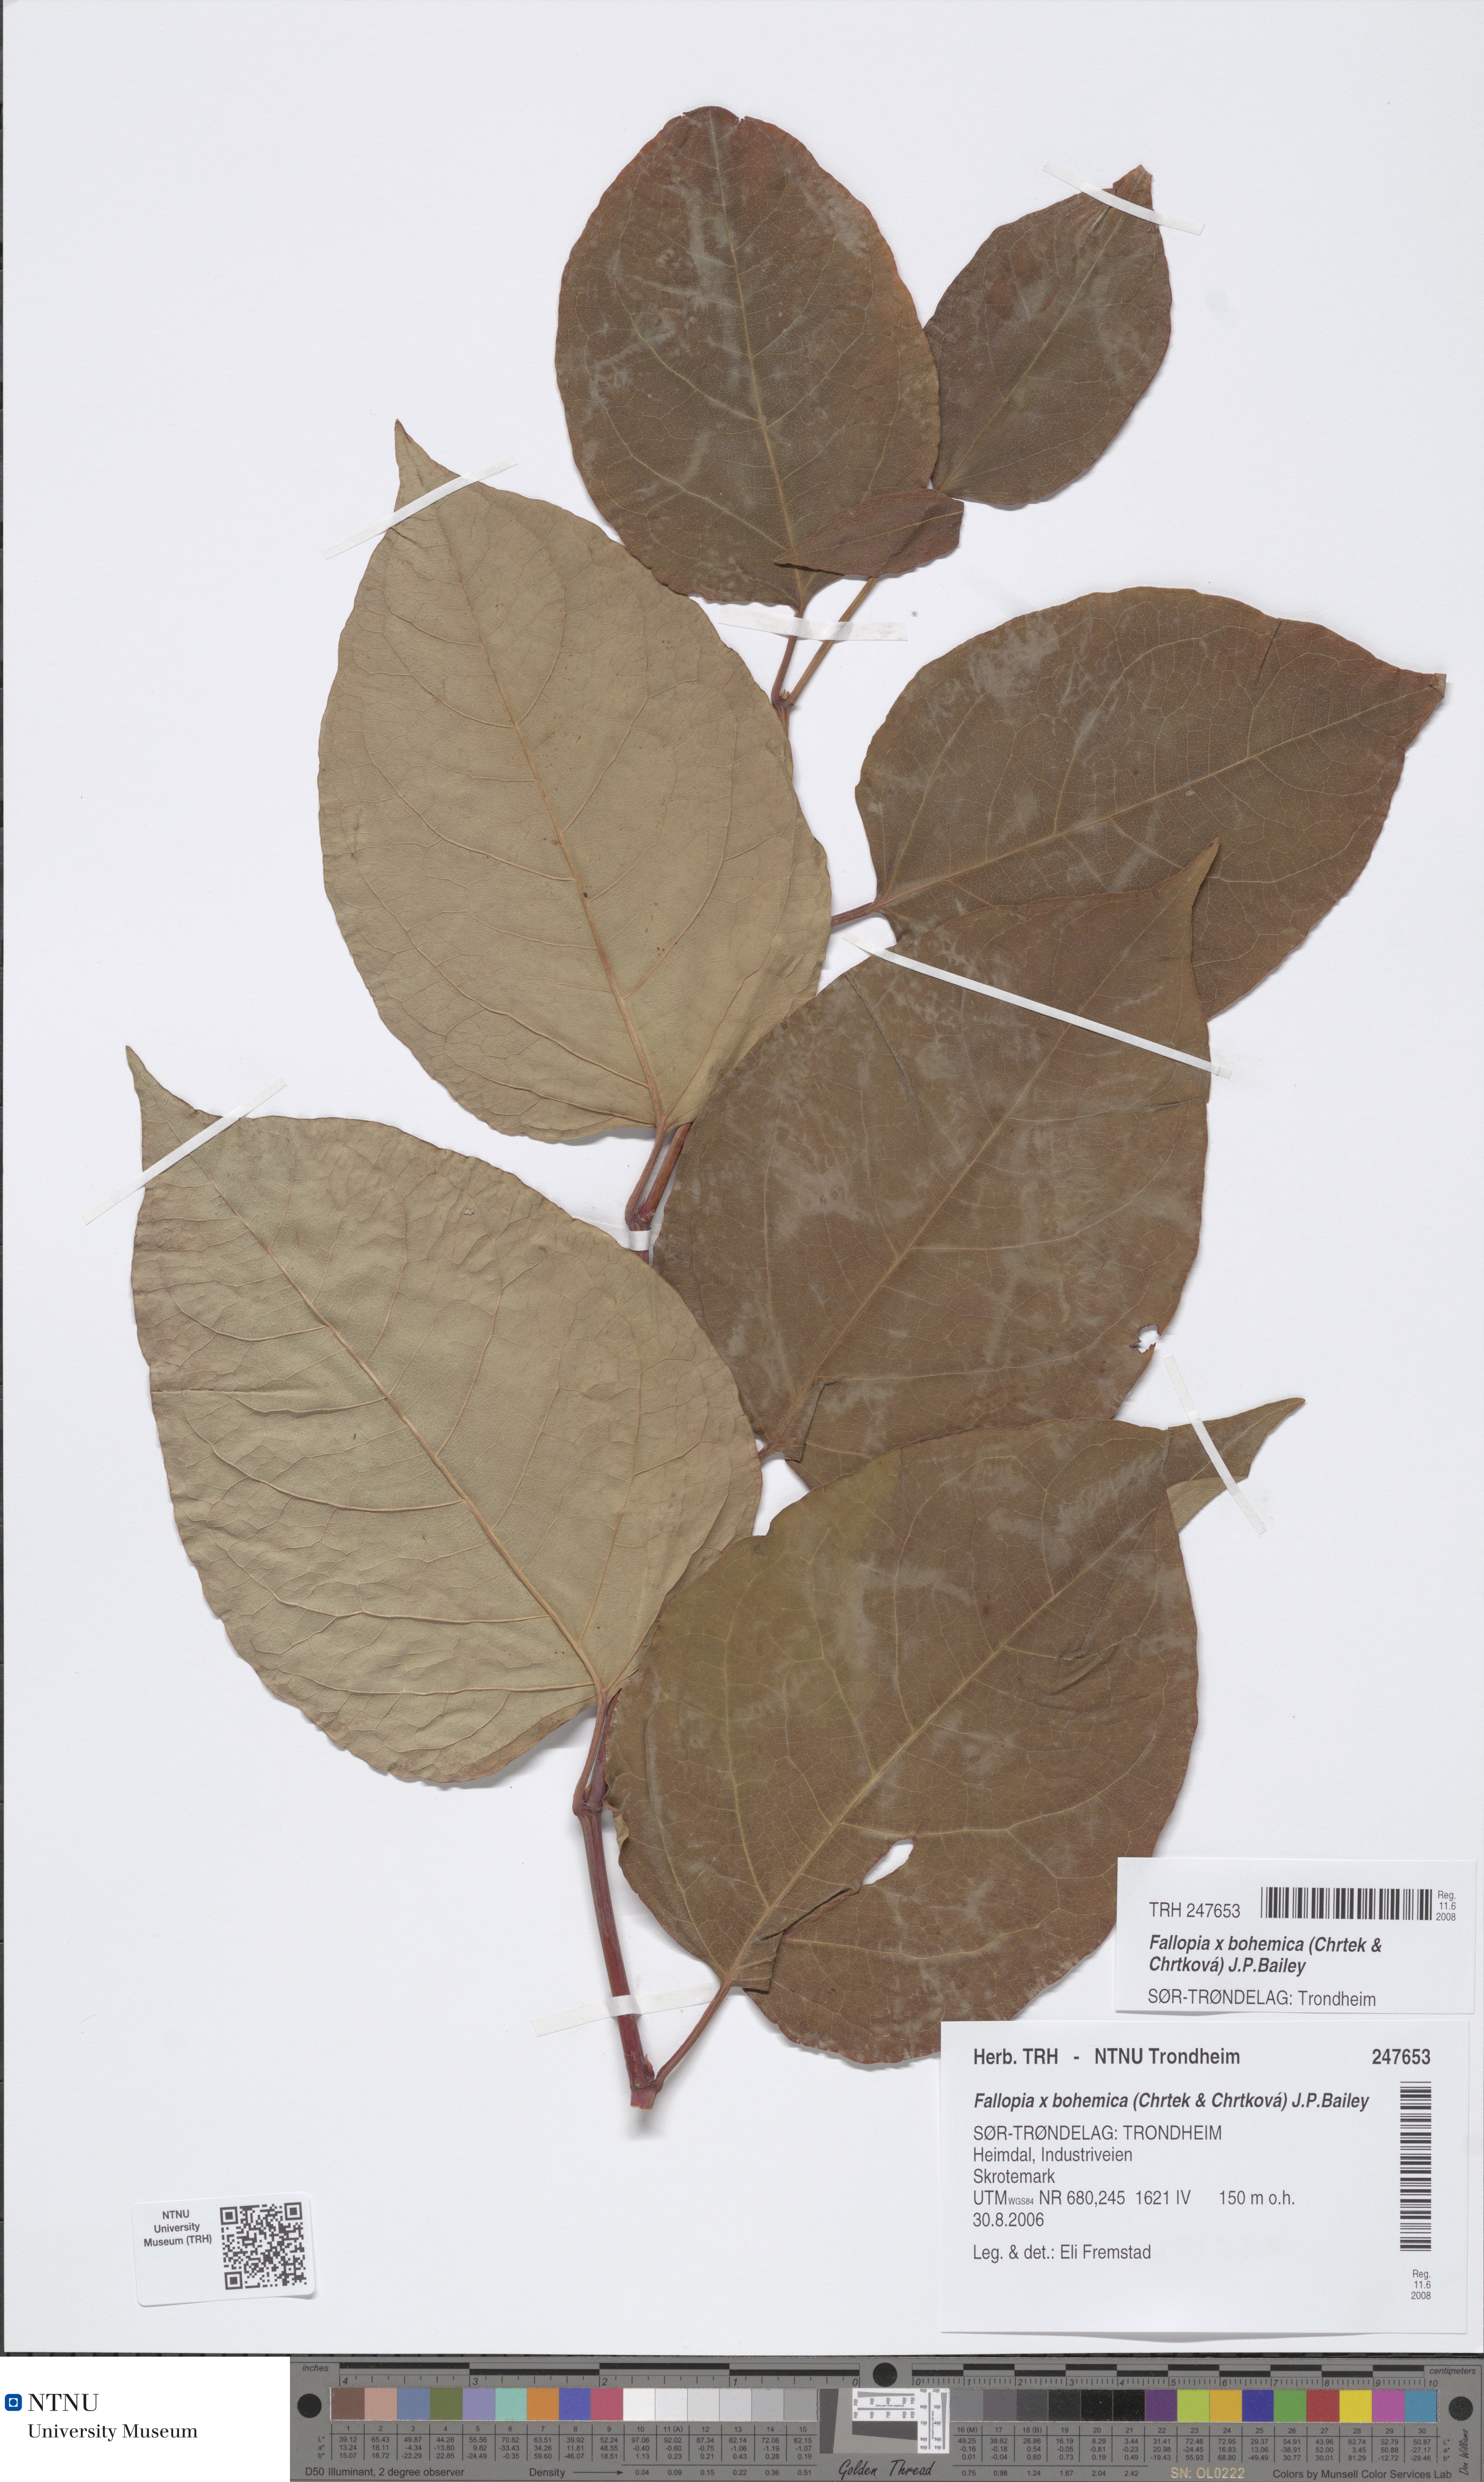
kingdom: Plantae
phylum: Tracheophyta
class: Magnoliopsida
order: Caryophyllales
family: Polygonaceae
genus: Reynoutria
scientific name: Reynoutria bohemica
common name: Bohemian knotweed
